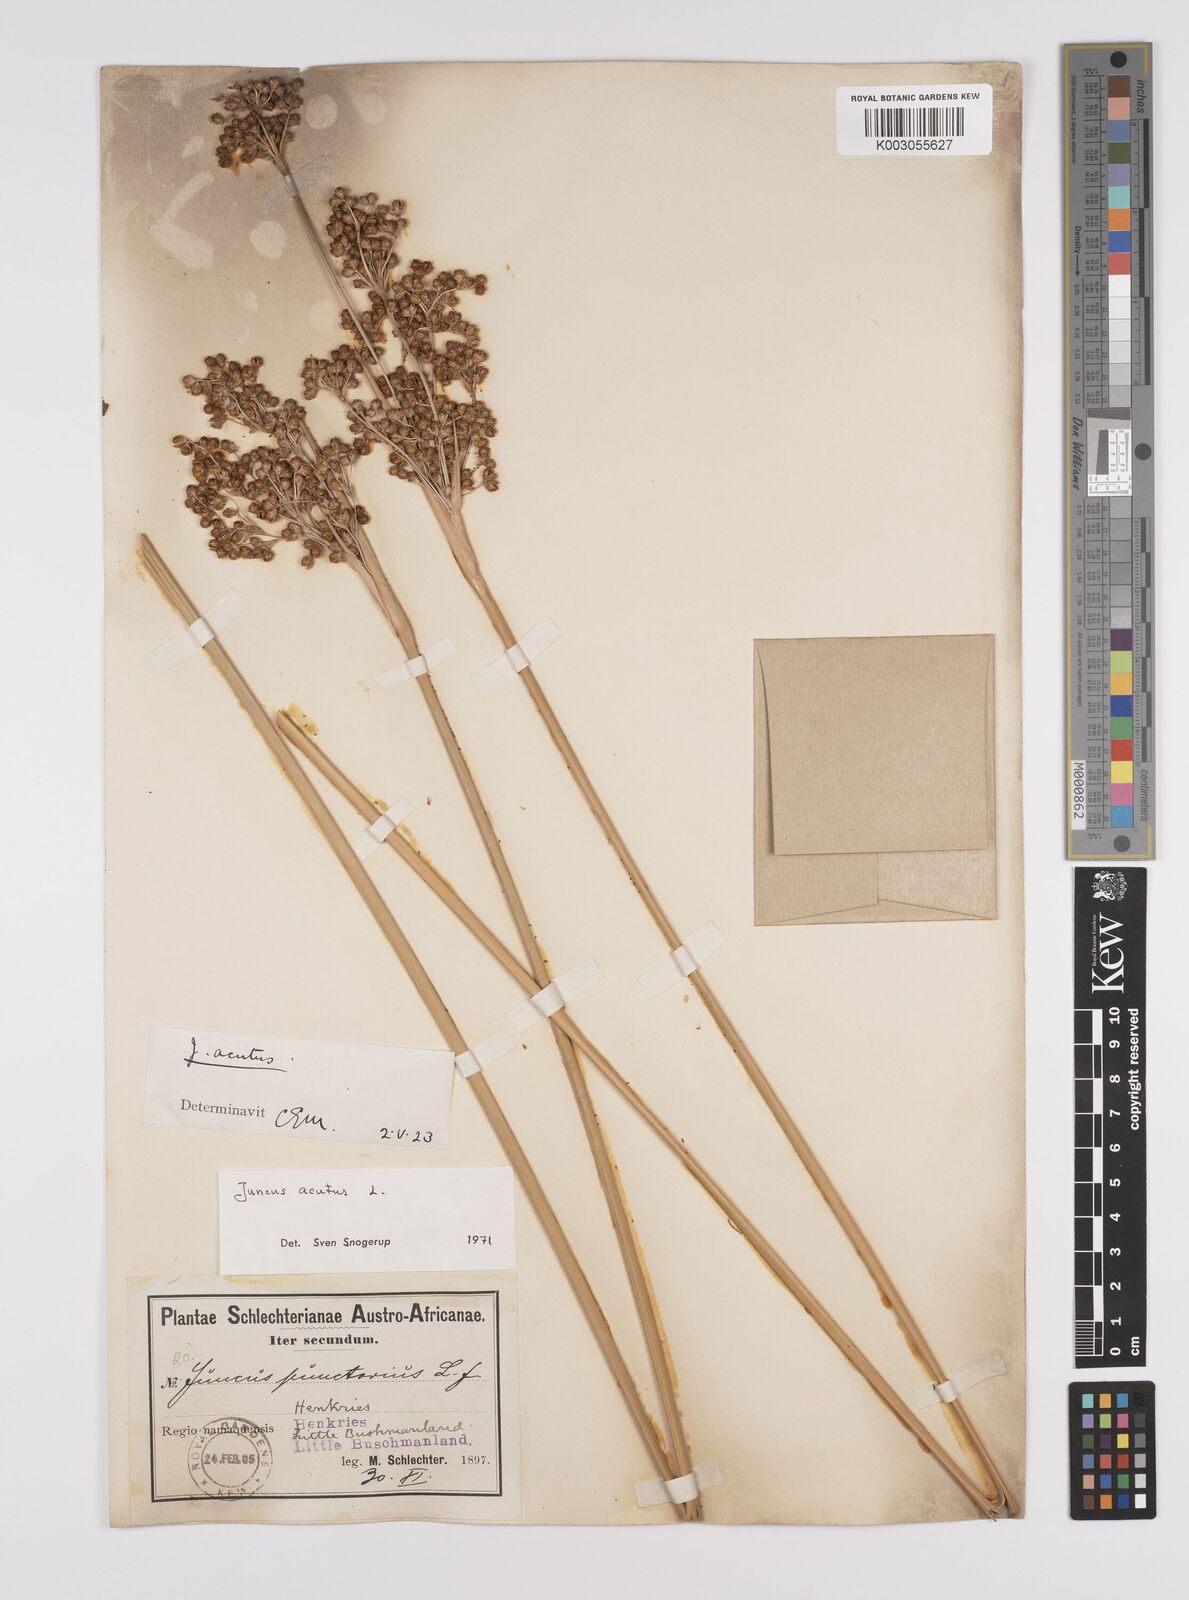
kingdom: Plantae
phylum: Tracheophyta
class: Liliopsida
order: Poales
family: Juncaceae
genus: Juncus
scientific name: Juncus acutus
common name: Sharp rush
